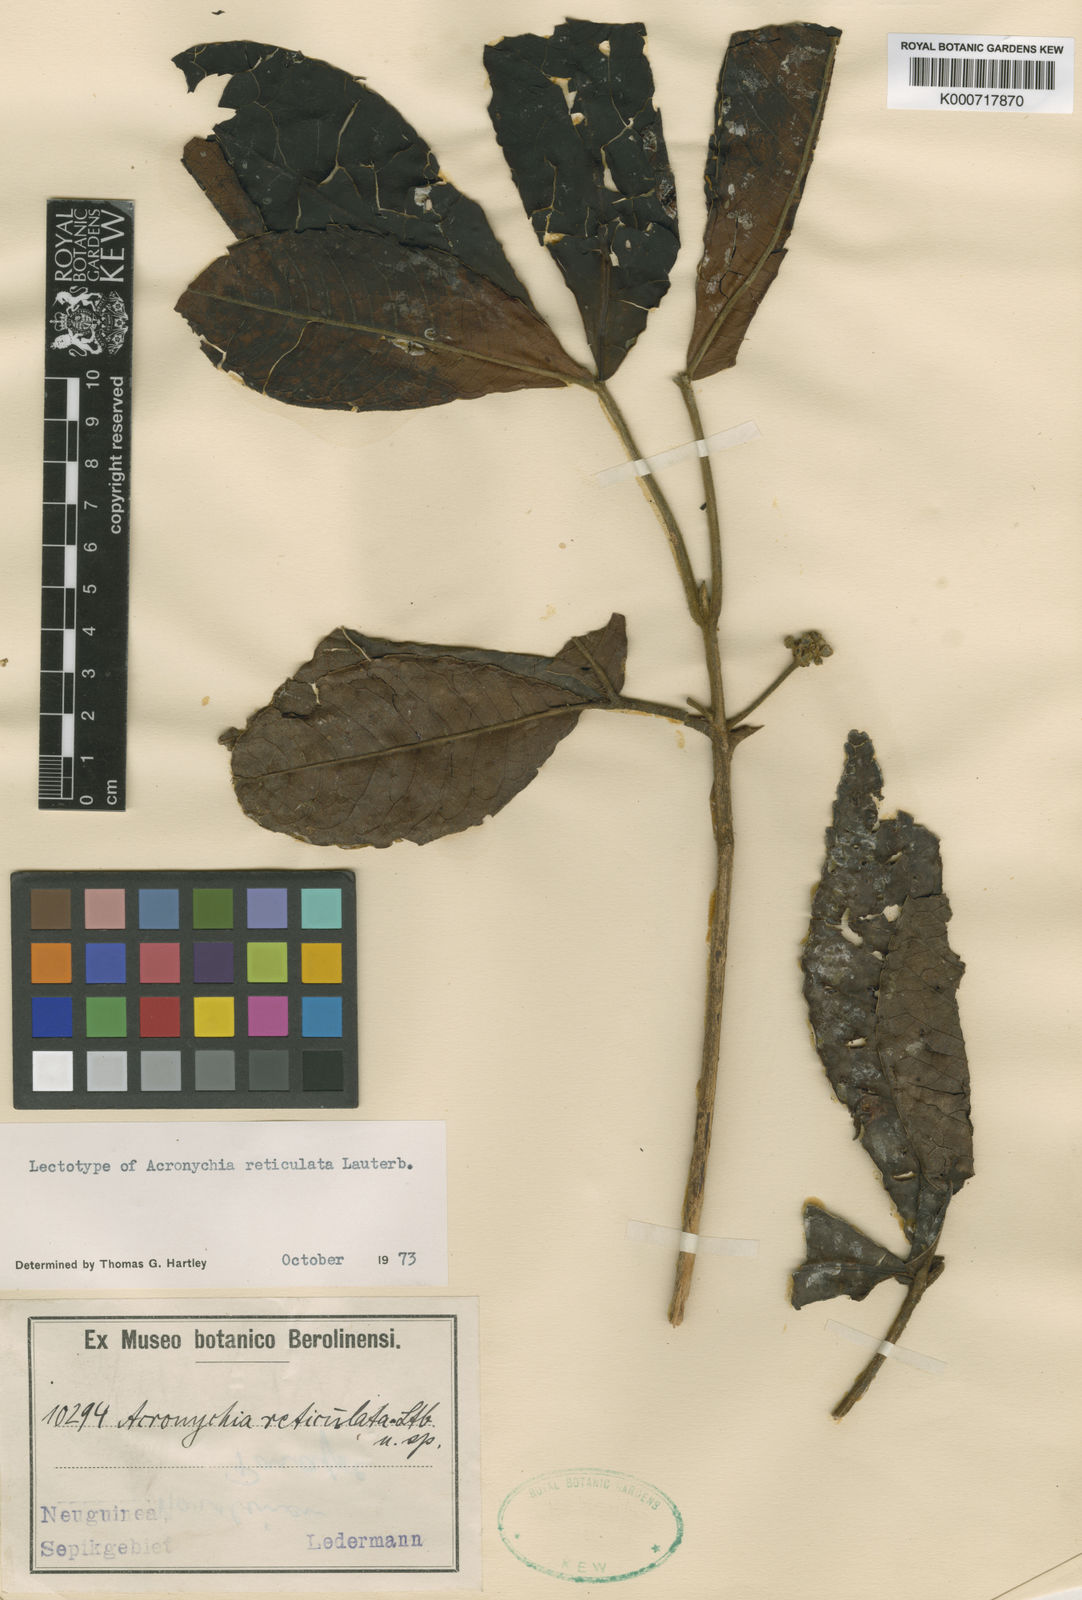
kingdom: Plantae
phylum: Tracheophyta
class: Magnoliopsida
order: Sapindales
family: Rutaceae
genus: Acronychia
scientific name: Acronychia reticulata
